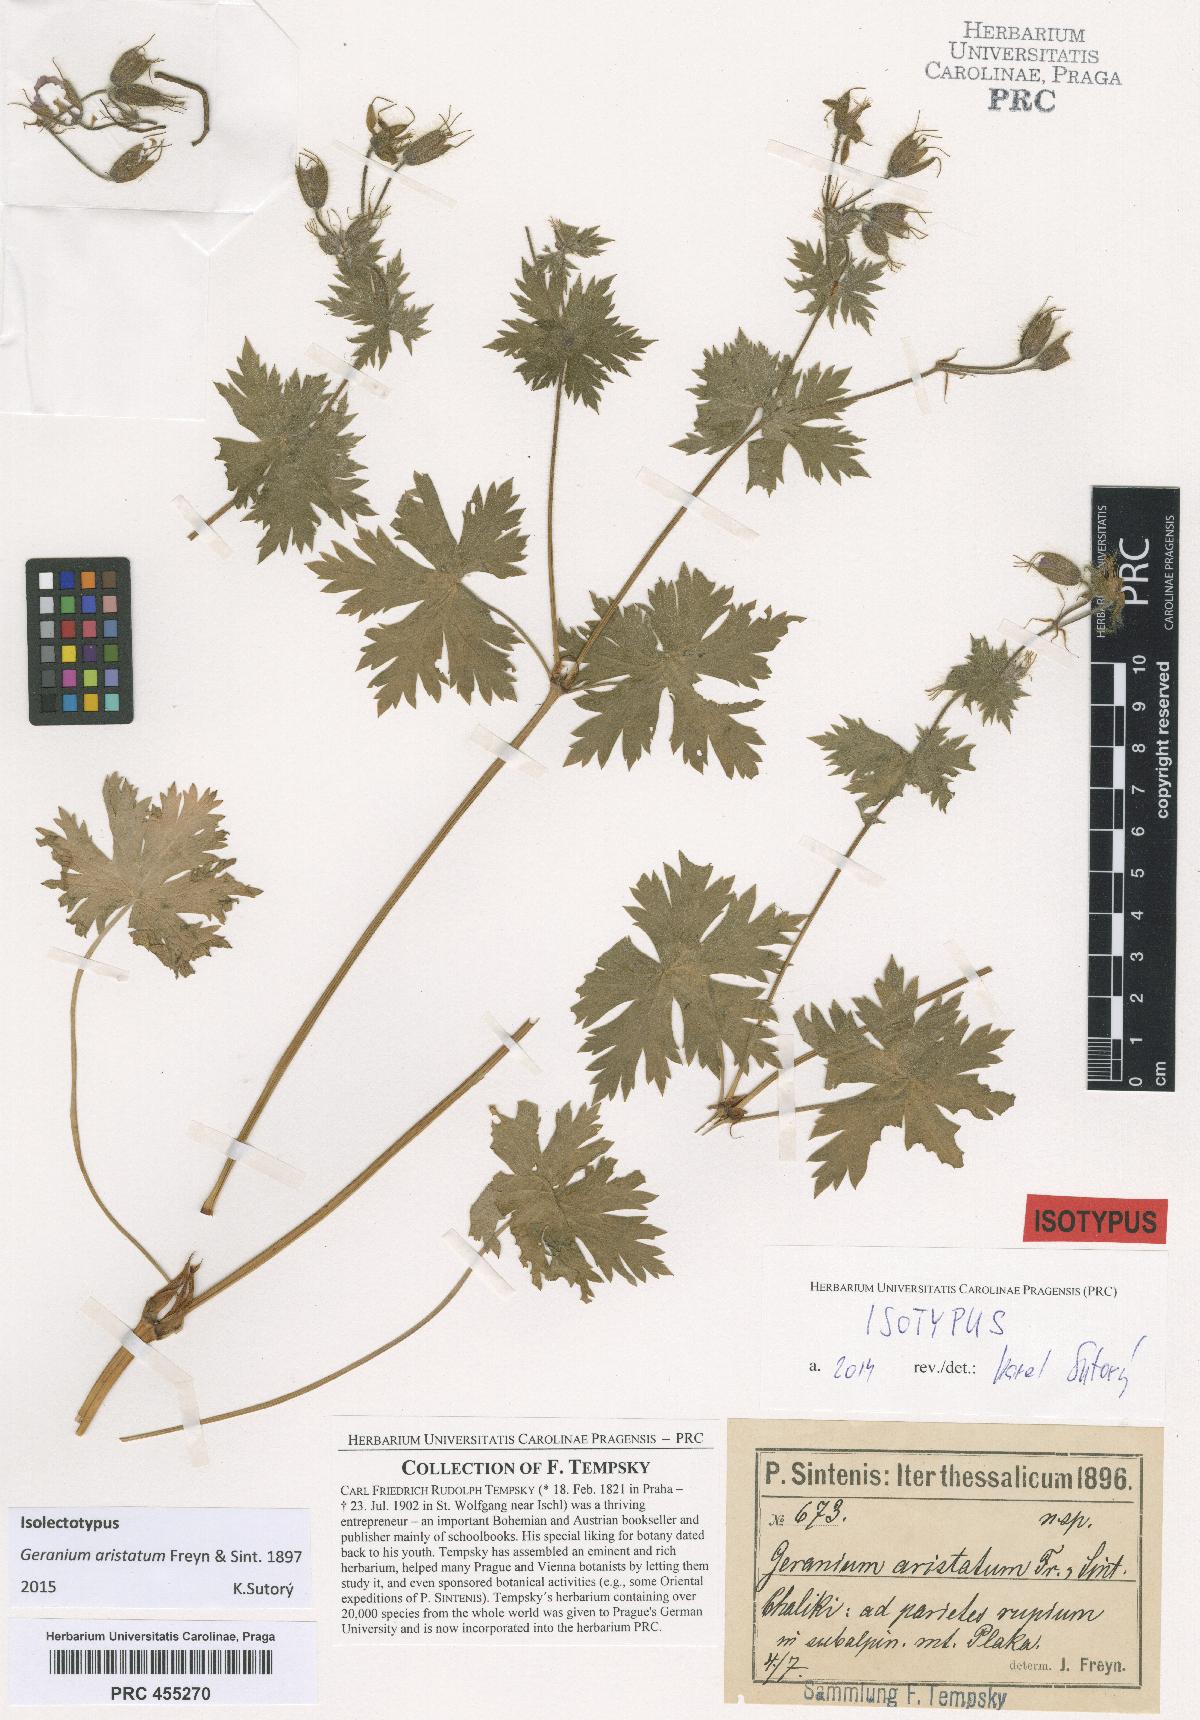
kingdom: Plantae
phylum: Tracheophyta
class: Magnoliopsida
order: Geraniales
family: Geraniaceae
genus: Geranium
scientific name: Geranium aristatum
